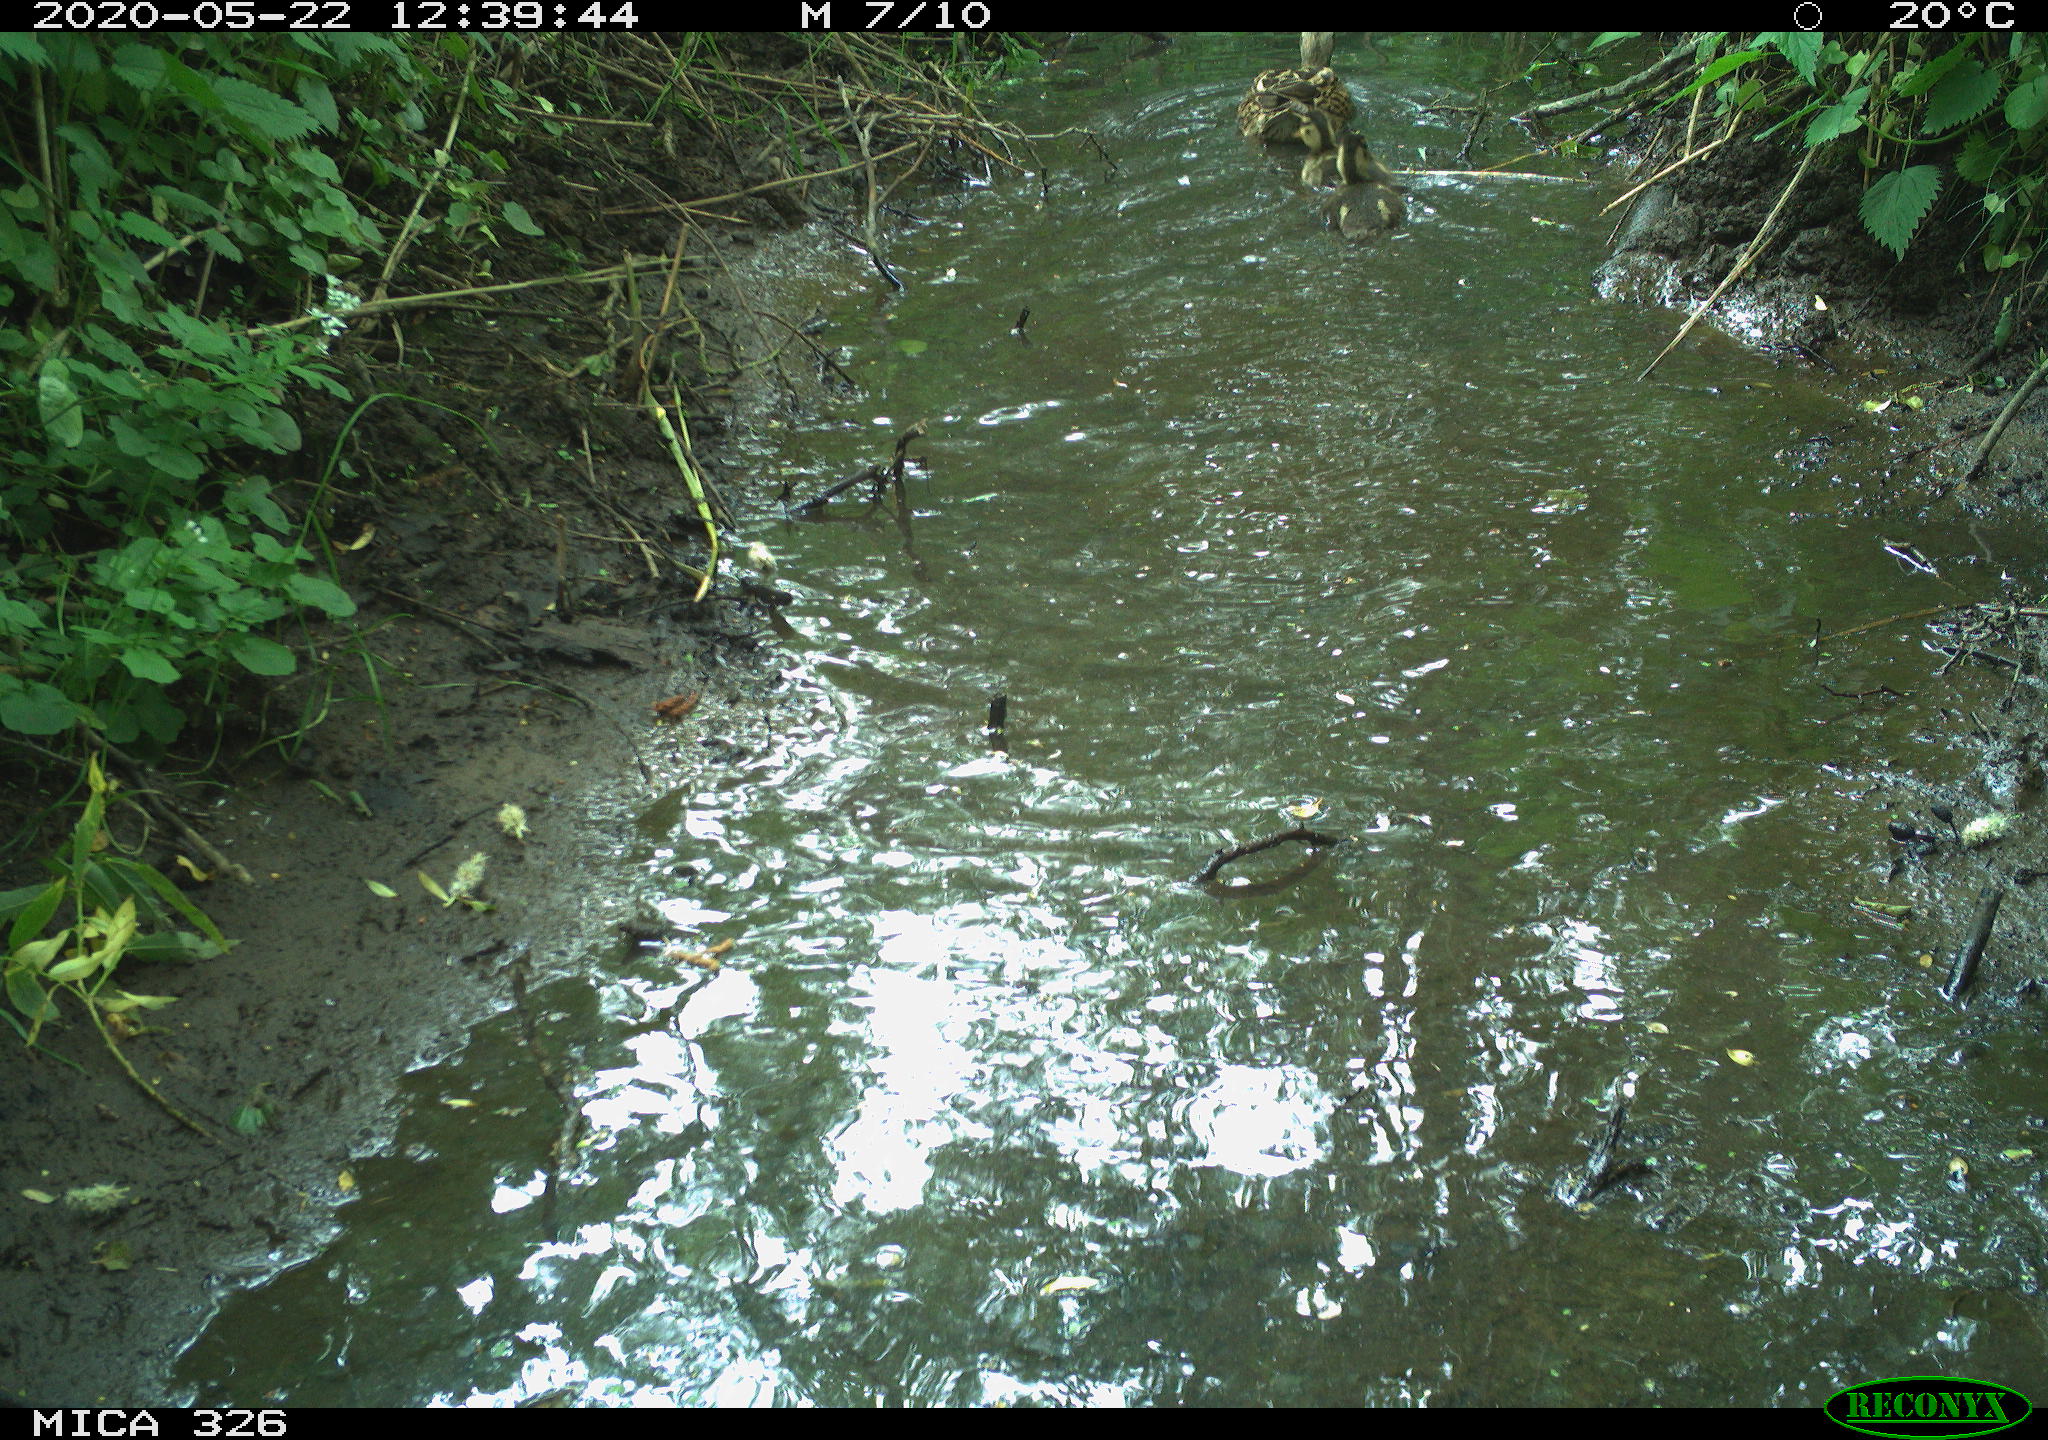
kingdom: Animalia
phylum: Chordata
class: Aves
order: Anseriformes
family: Anatidae
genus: Anas
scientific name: Anas platyrhynchos
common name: Mallard
